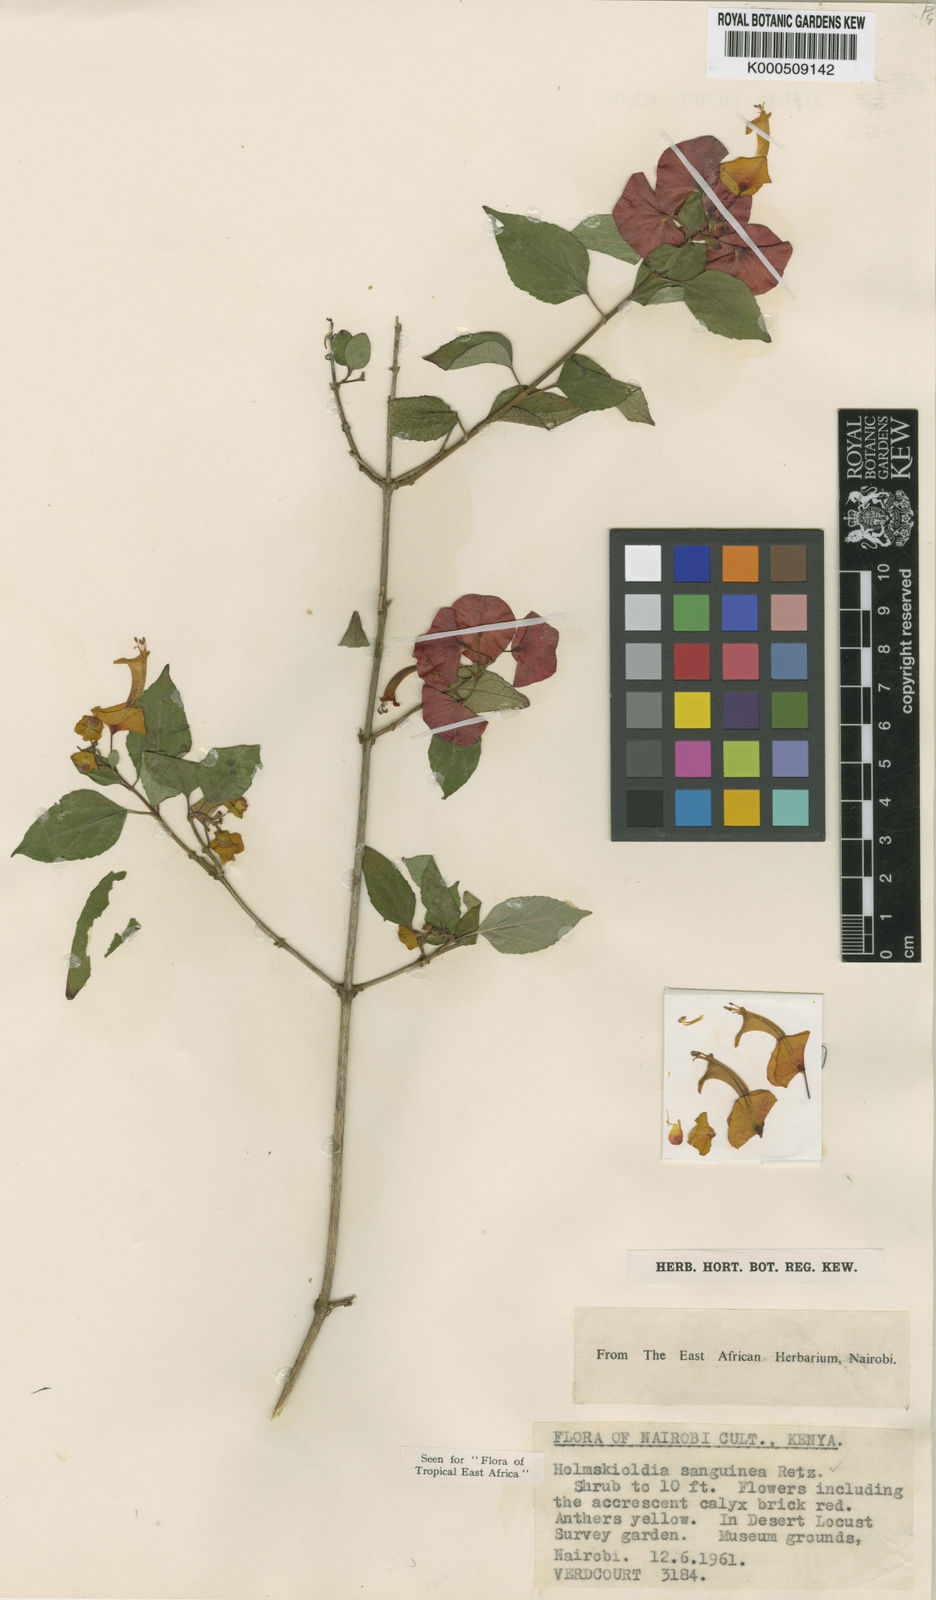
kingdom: Plantae
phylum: Tracheophyta
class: Magnoliopsida
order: Lamiales
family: Lamiaceae
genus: Holmskioldia
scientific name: Holmskioldia sanguinea
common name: Chinese hatplant
